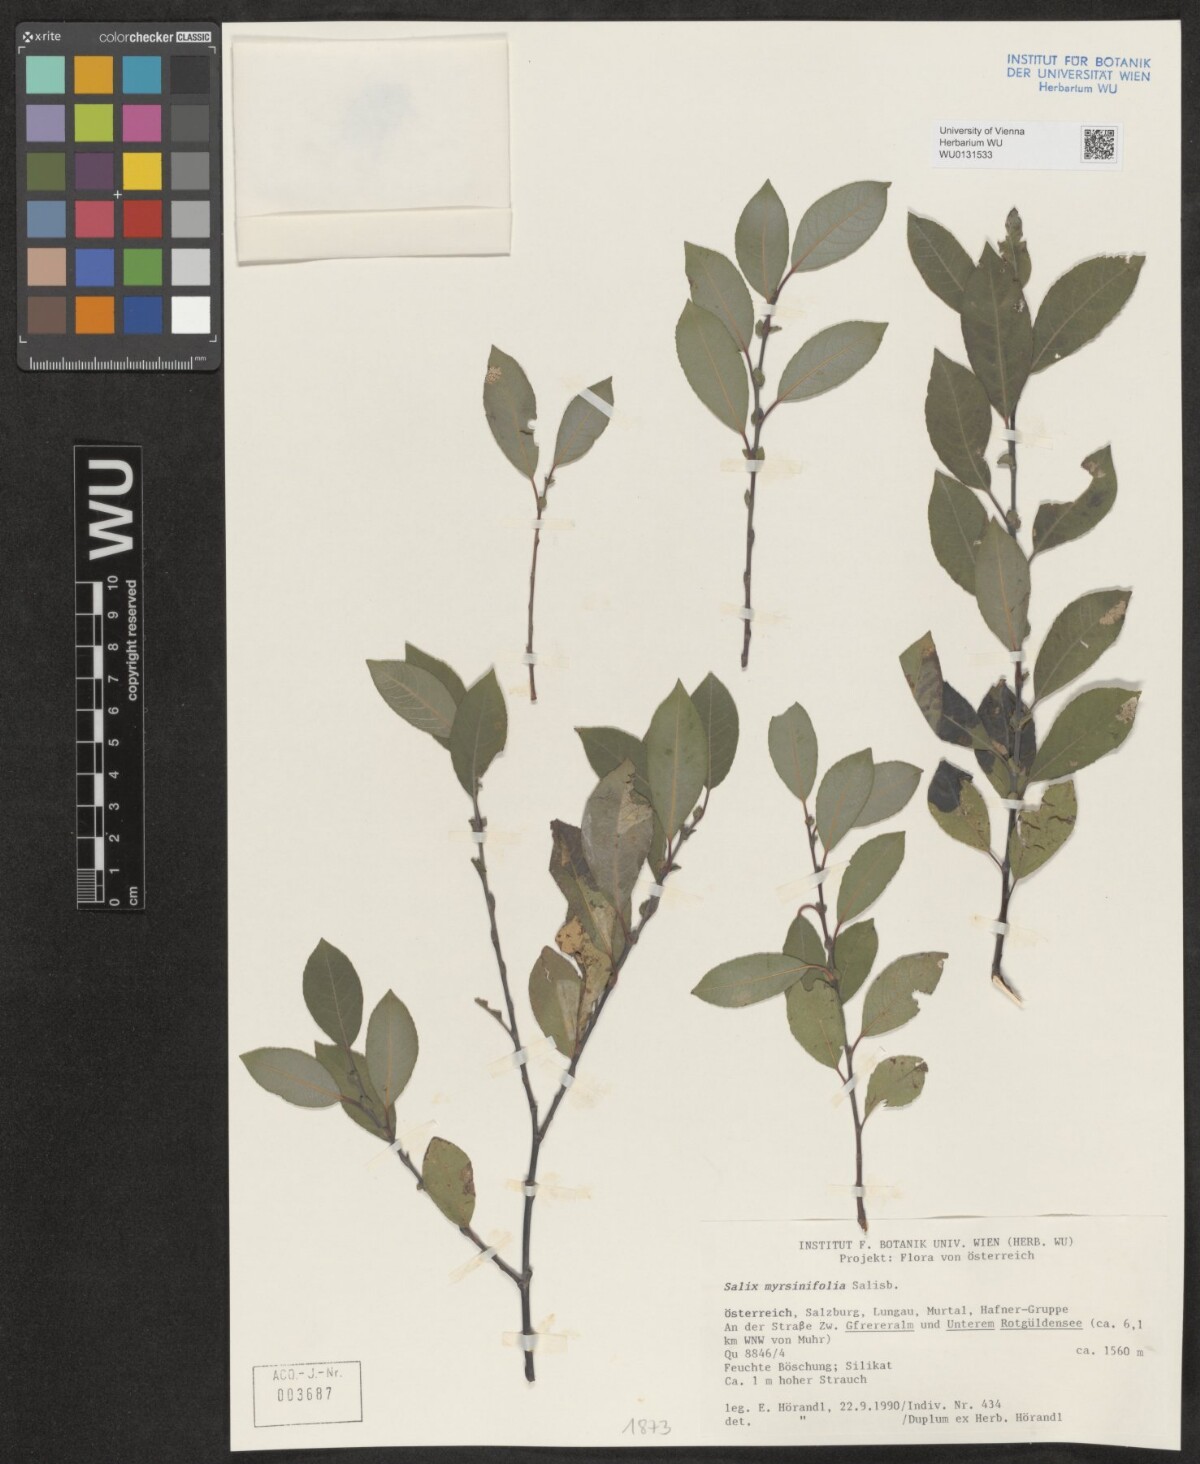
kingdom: Plantae
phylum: Tracheophyta
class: Magnoliopsida
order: Malpighiales
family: Salicaceae
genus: Salix
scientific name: Salix myrsinifolia
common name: Dark-leaved willow
